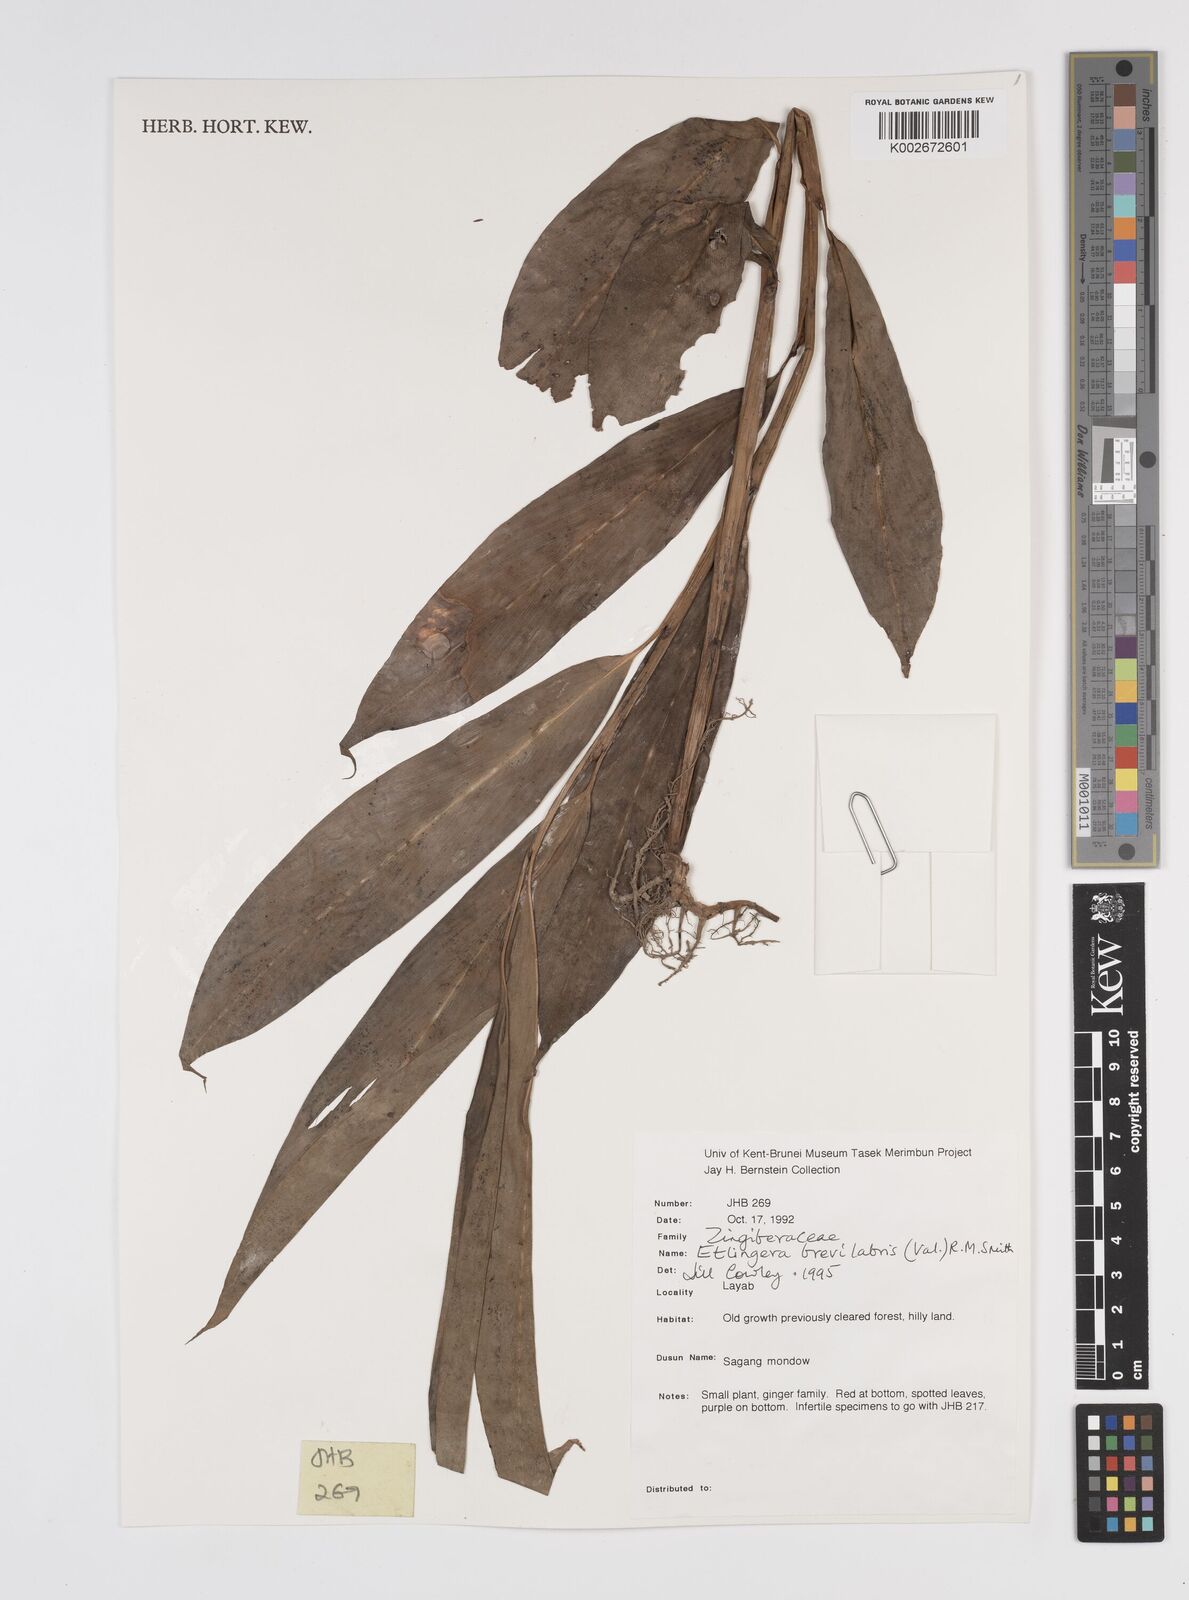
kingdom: Plantae
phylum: Tracheophyta
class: Liliopsida
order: Zingiberales
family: Zingiberaceae
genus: Etlingera
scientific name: Etlingera
